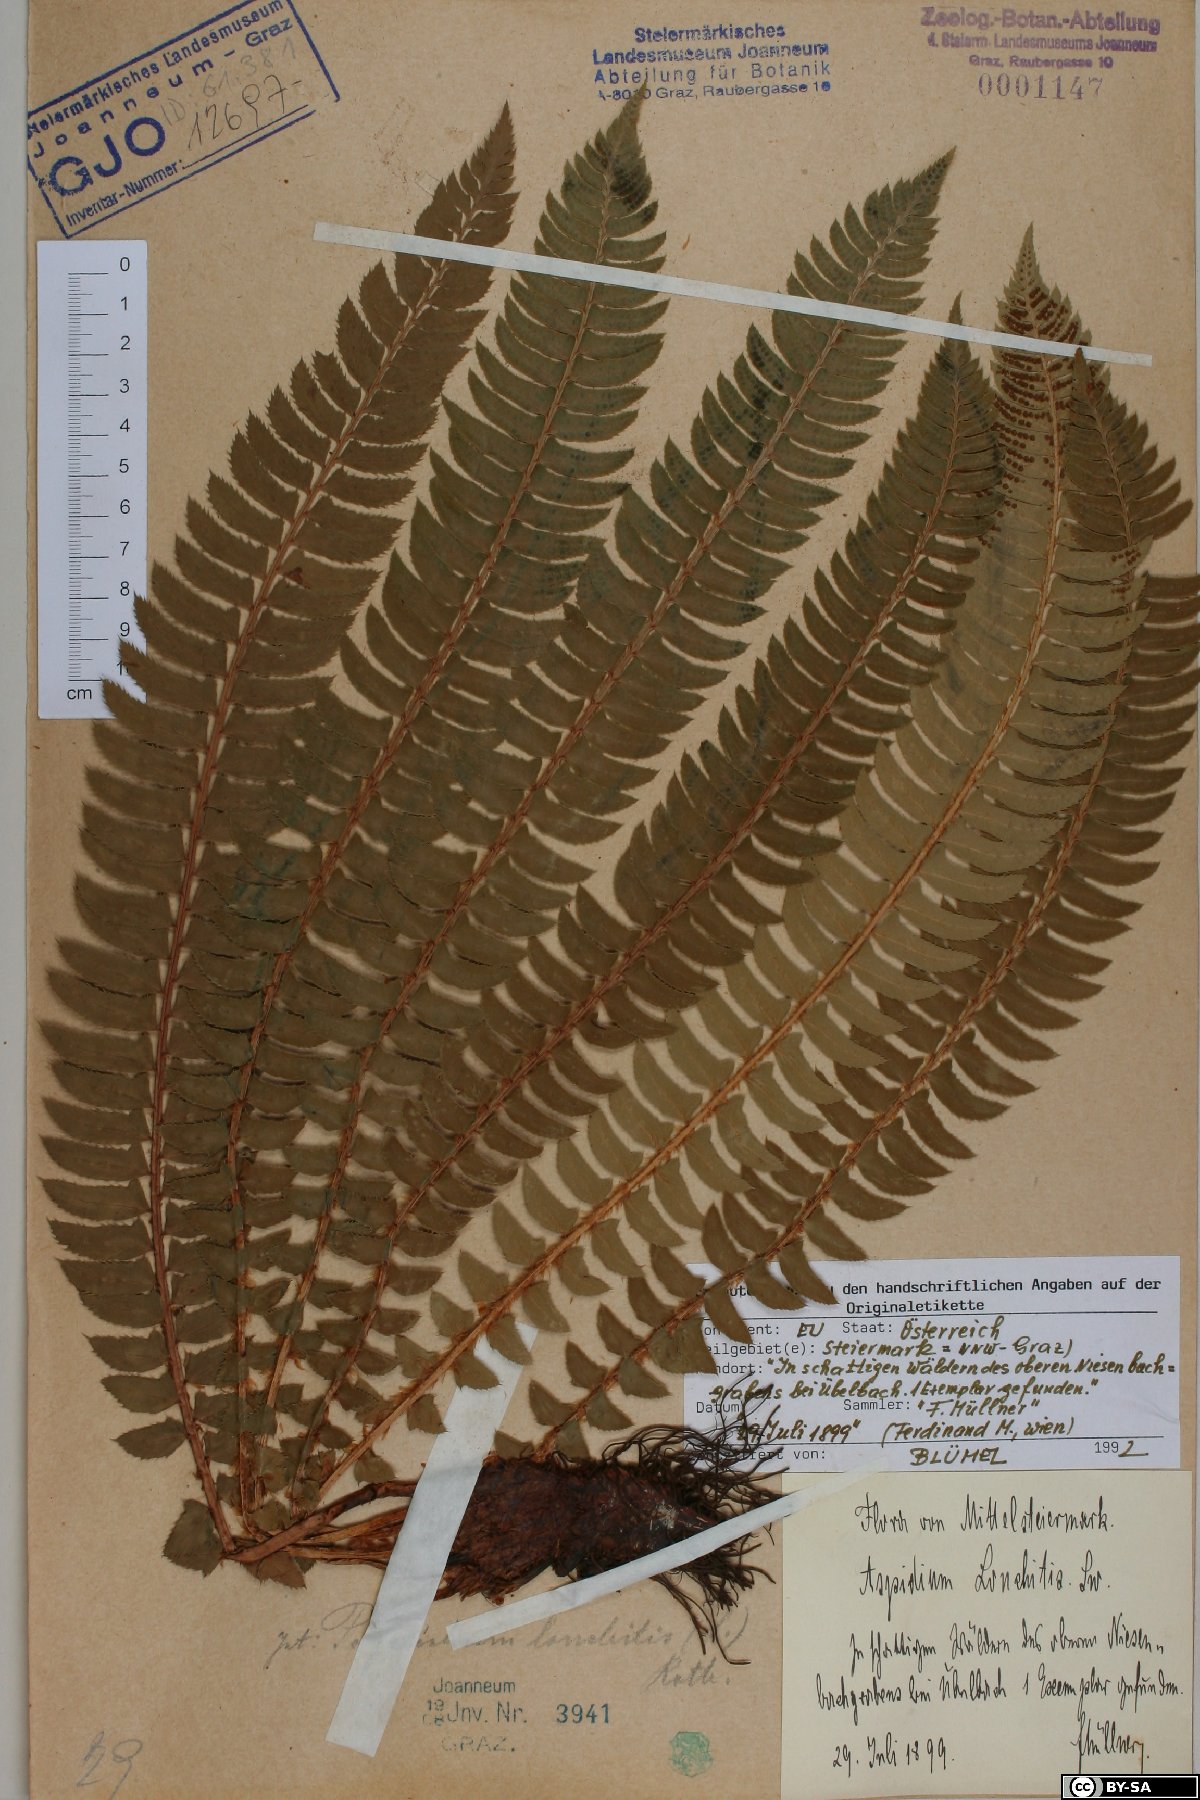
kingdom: Plantae
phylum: Tracheophyta
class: Polypodiopsida
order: Polypodiales
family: Dryopteridaceae
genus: Polystichum
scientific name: Polystichum lonchitis
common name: Holly fern
